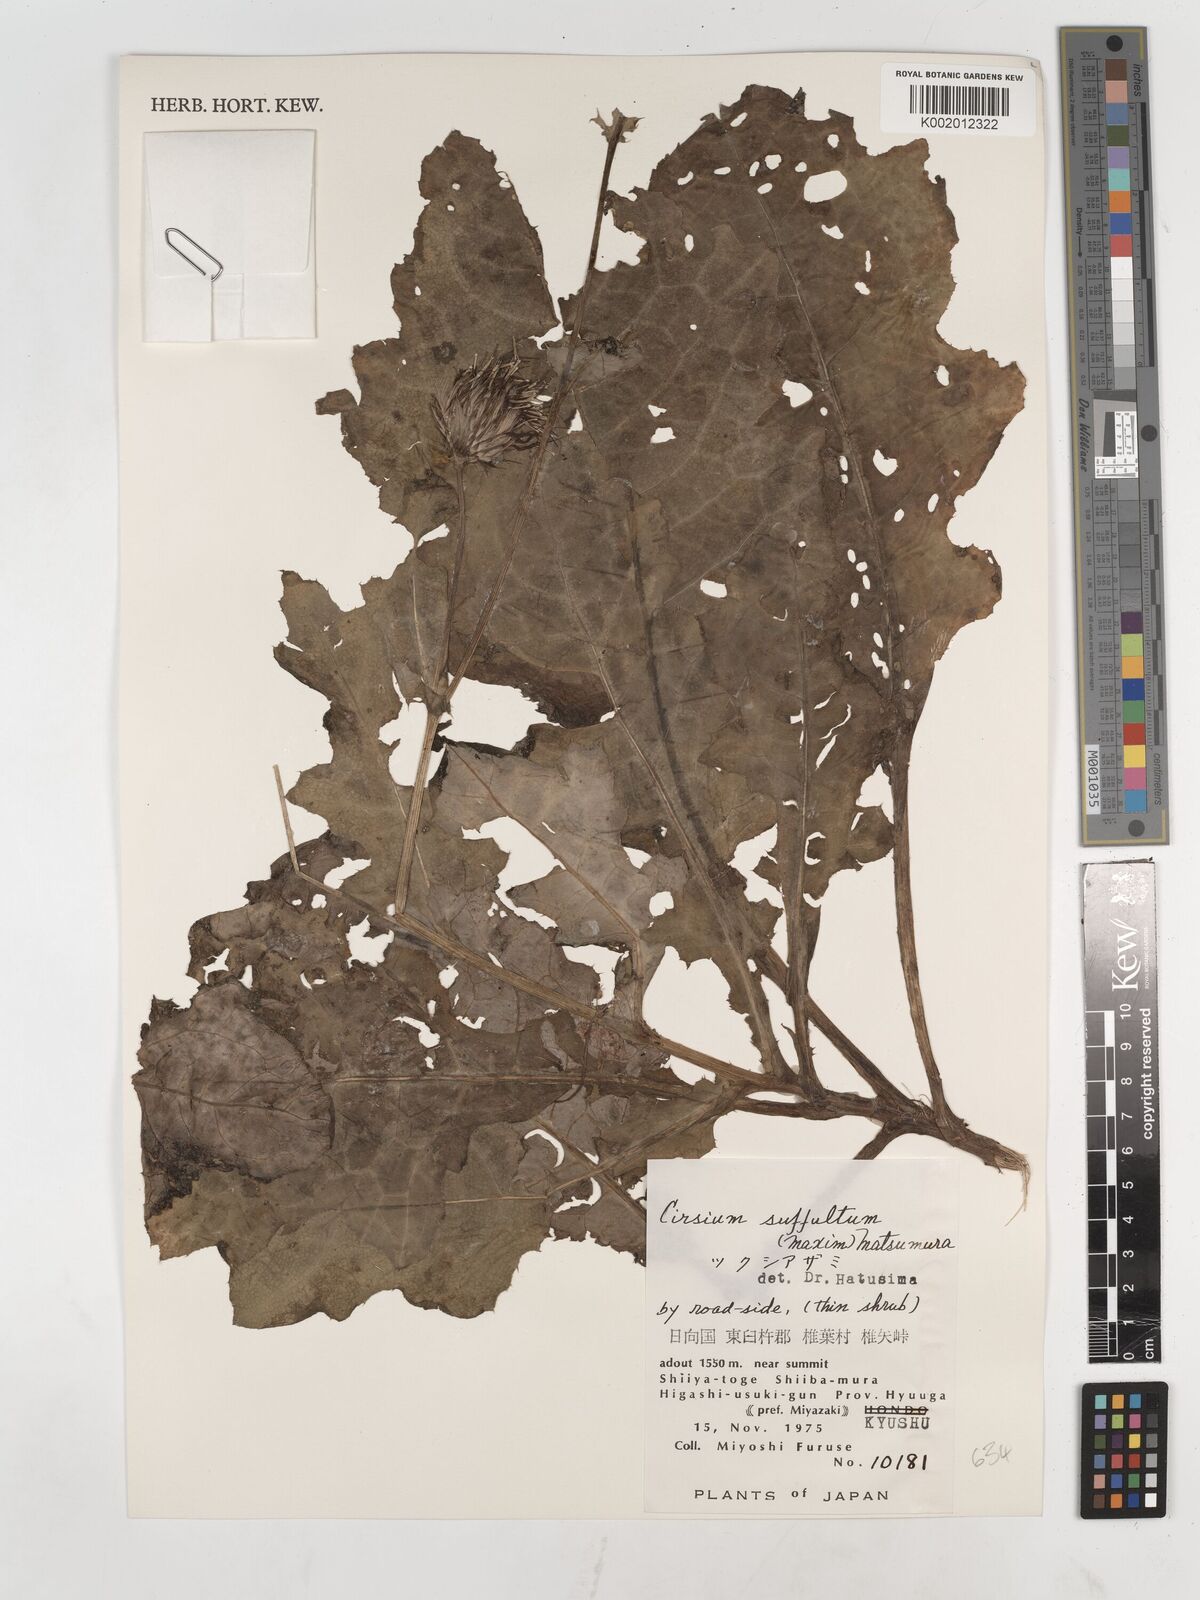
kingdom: Plantae
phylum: Tracheophyta
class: Magnoliopsida
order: Asterales
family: Asteraceae
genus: Cirsium
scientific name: Cirsium suffultum
